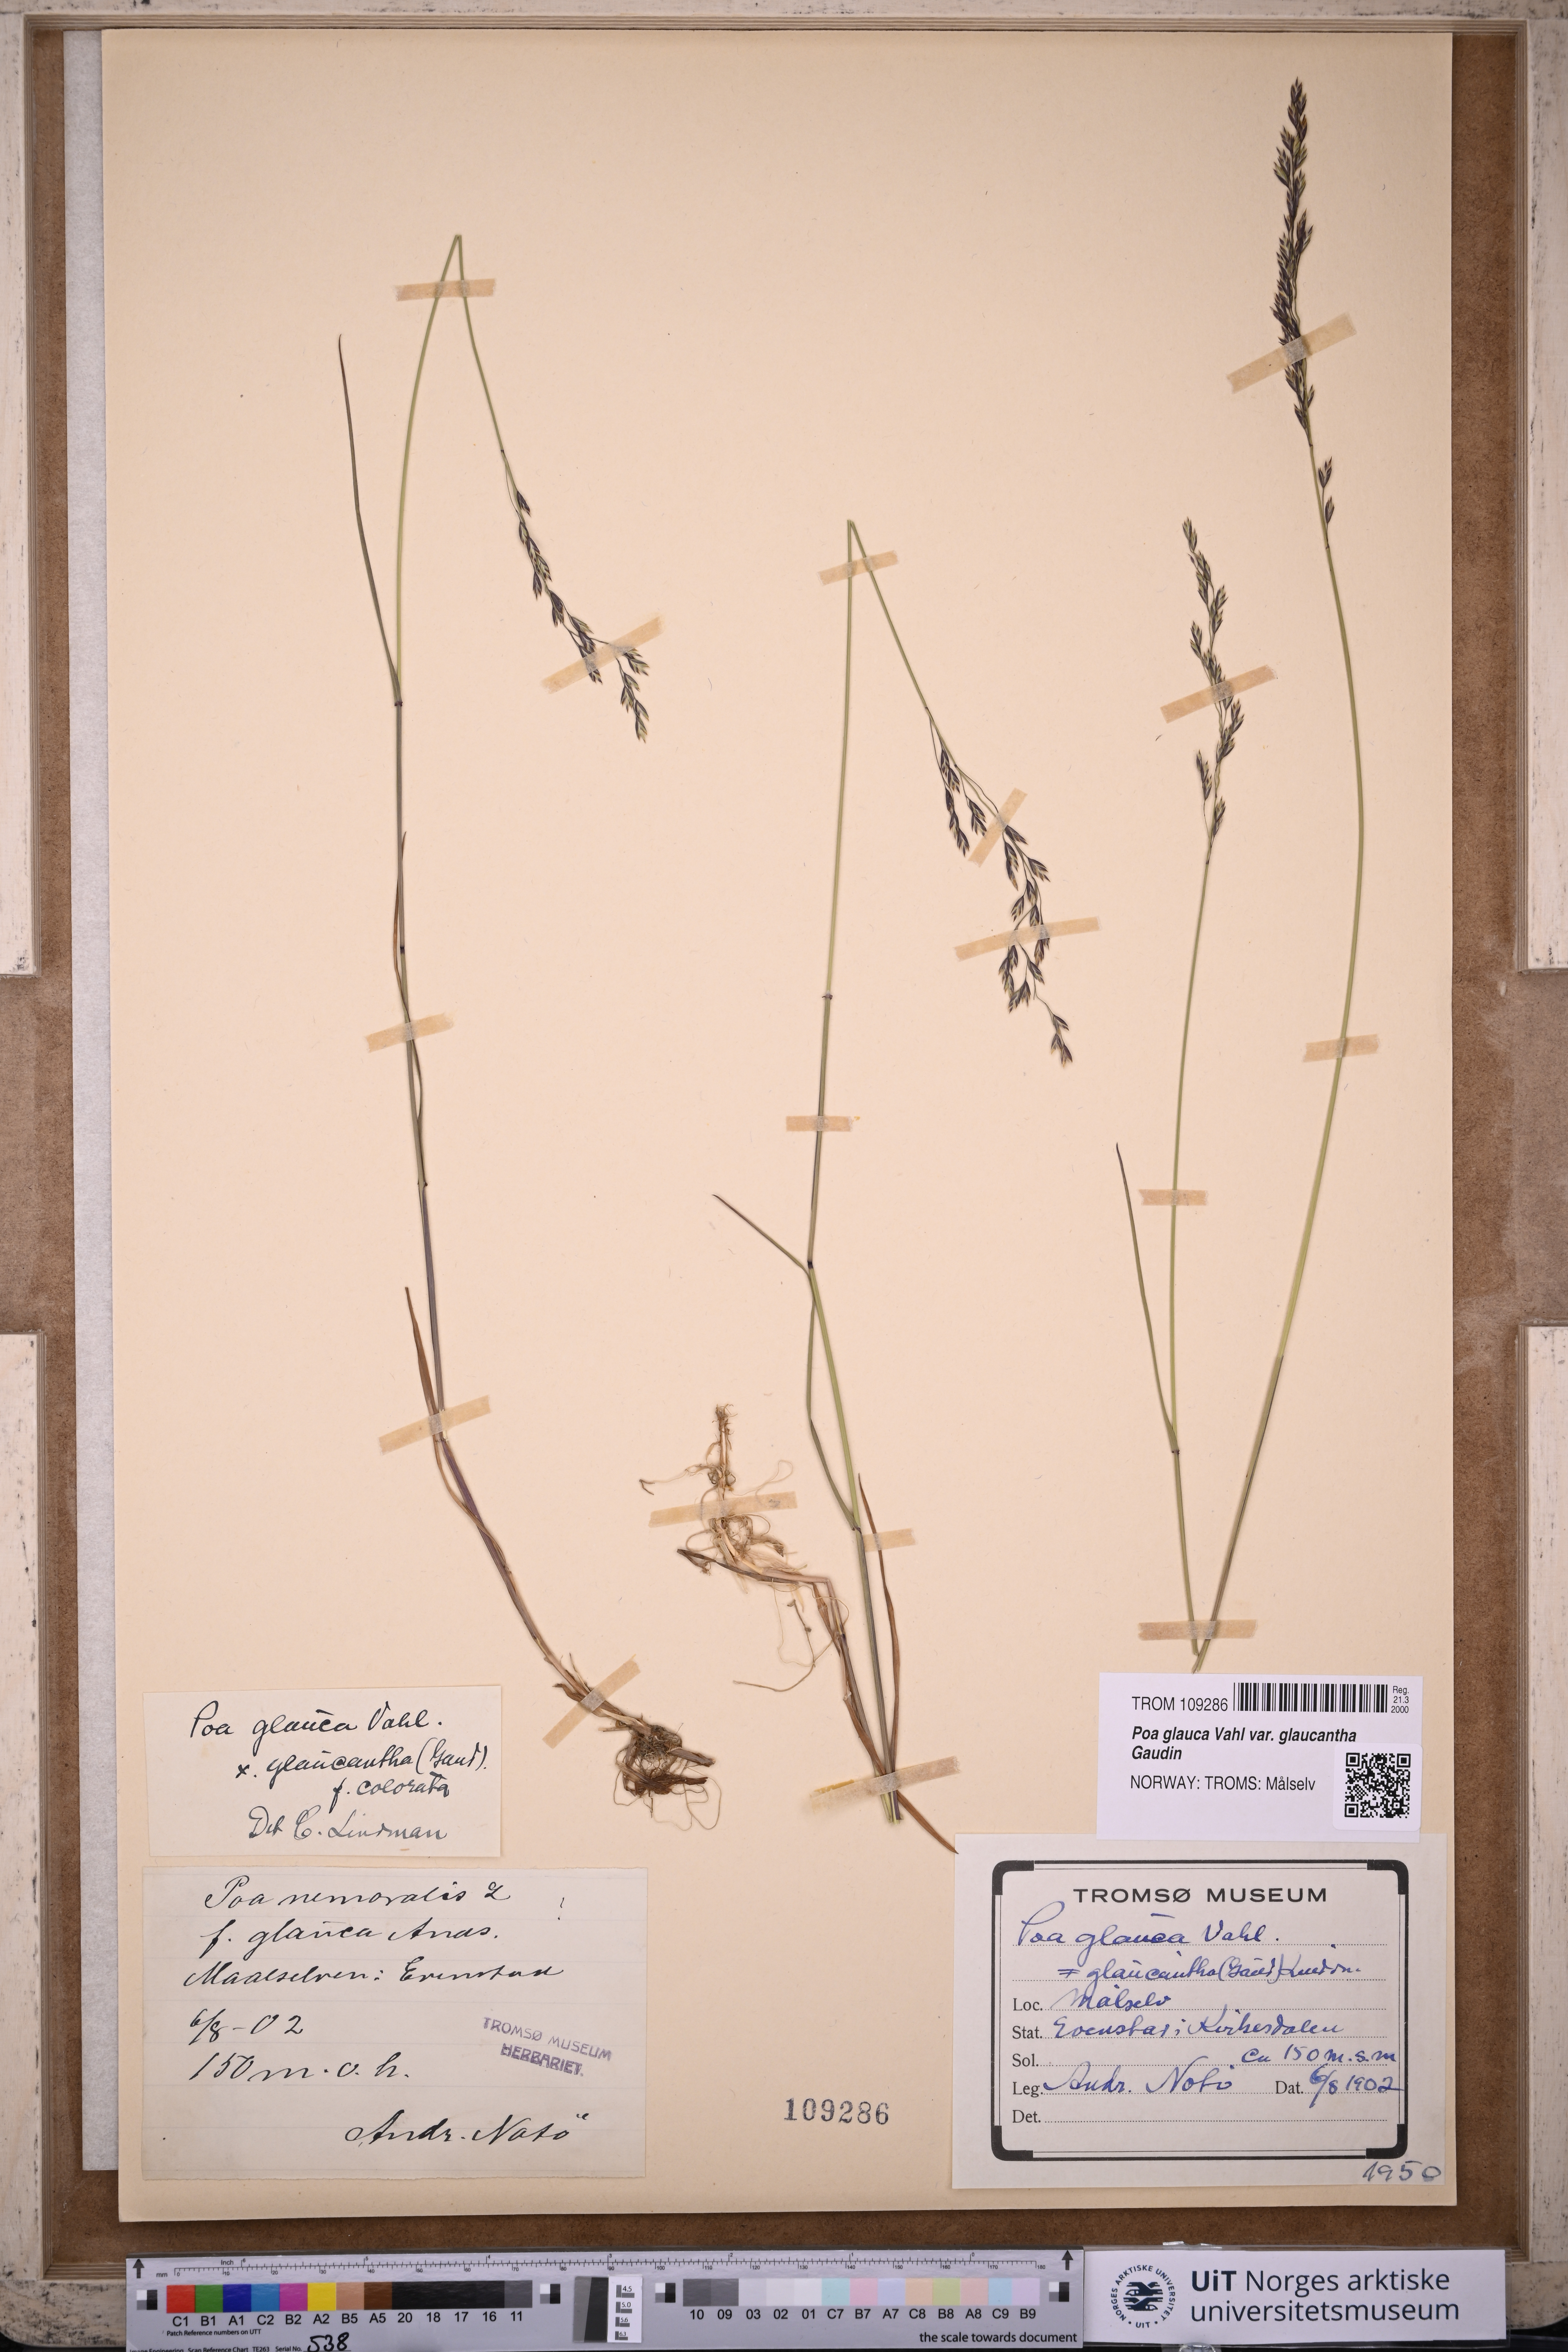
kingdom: Plantae
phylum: Tracheophyta
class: Liliopsida
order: Poales
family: Poaceae
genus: Poa
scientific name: Poa nemoralis
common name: Wood bluegrass
